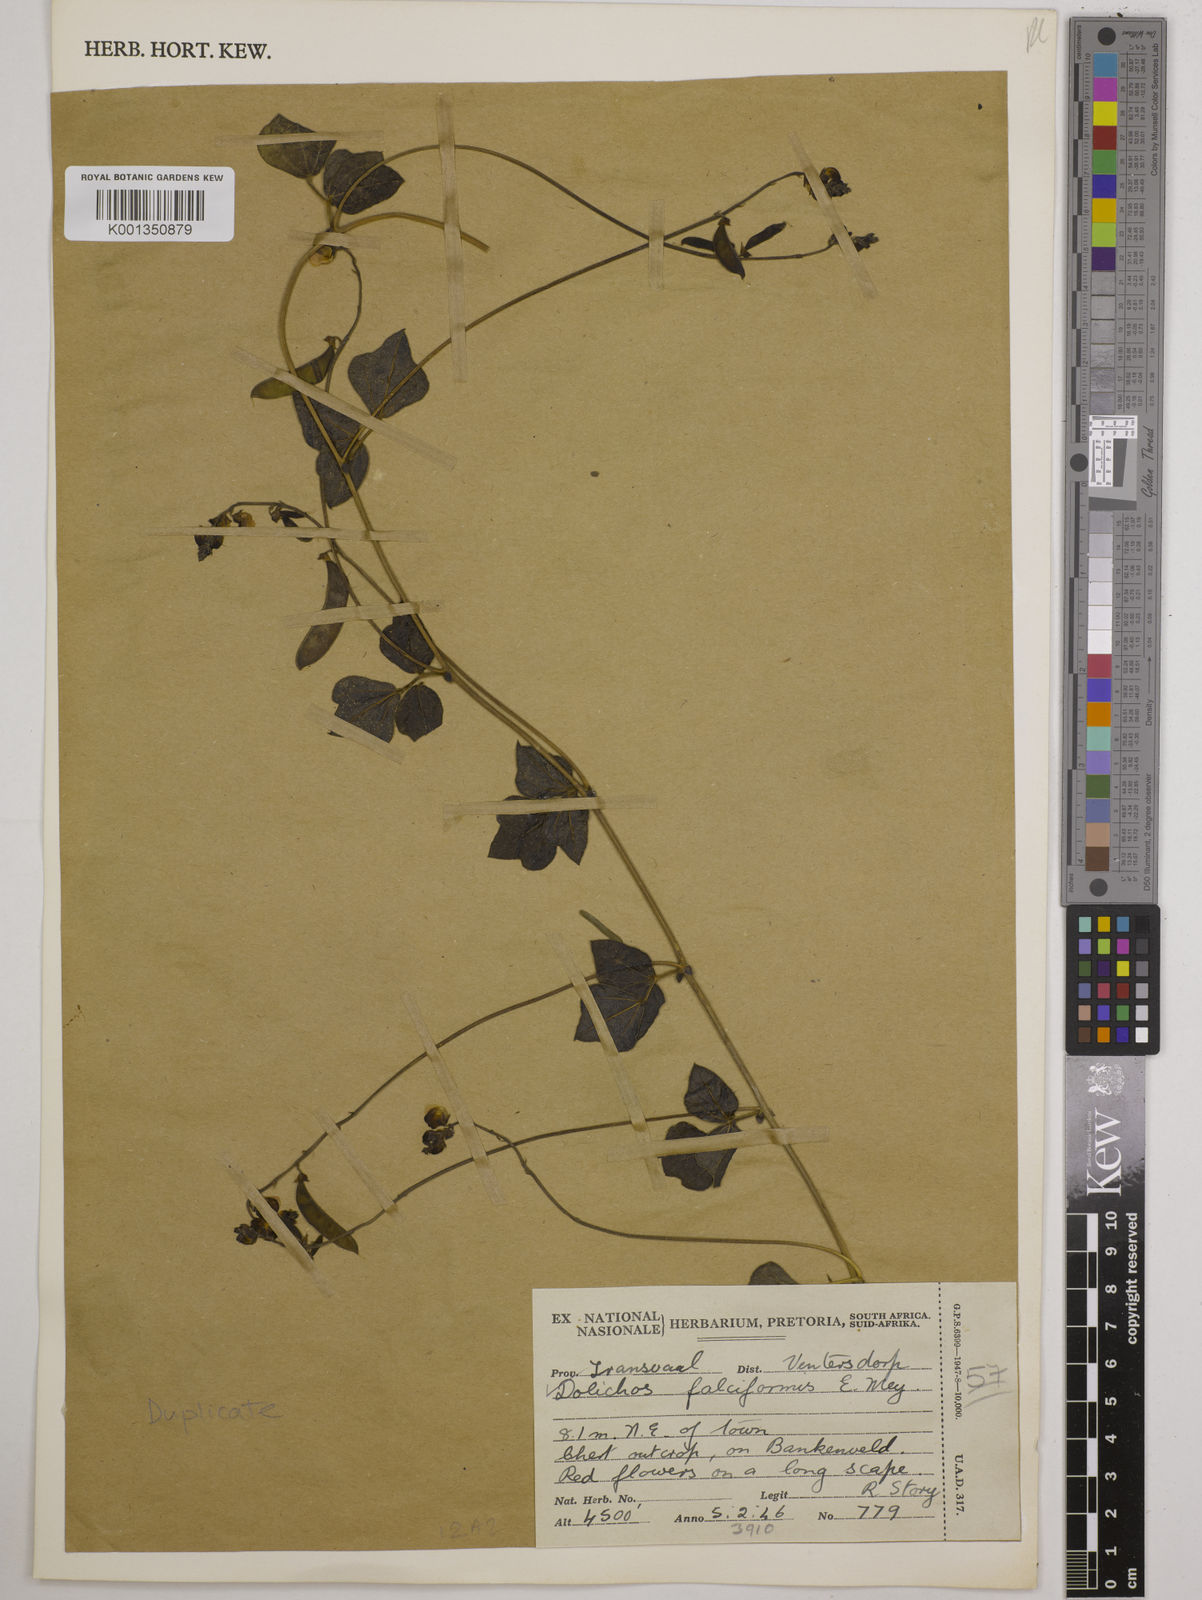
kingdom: Plantae
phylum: Tracheophyta
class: Magnoliopsida
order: Fabales
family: Fabaceae
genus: Dolichos
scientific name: Dolichos falciformis
